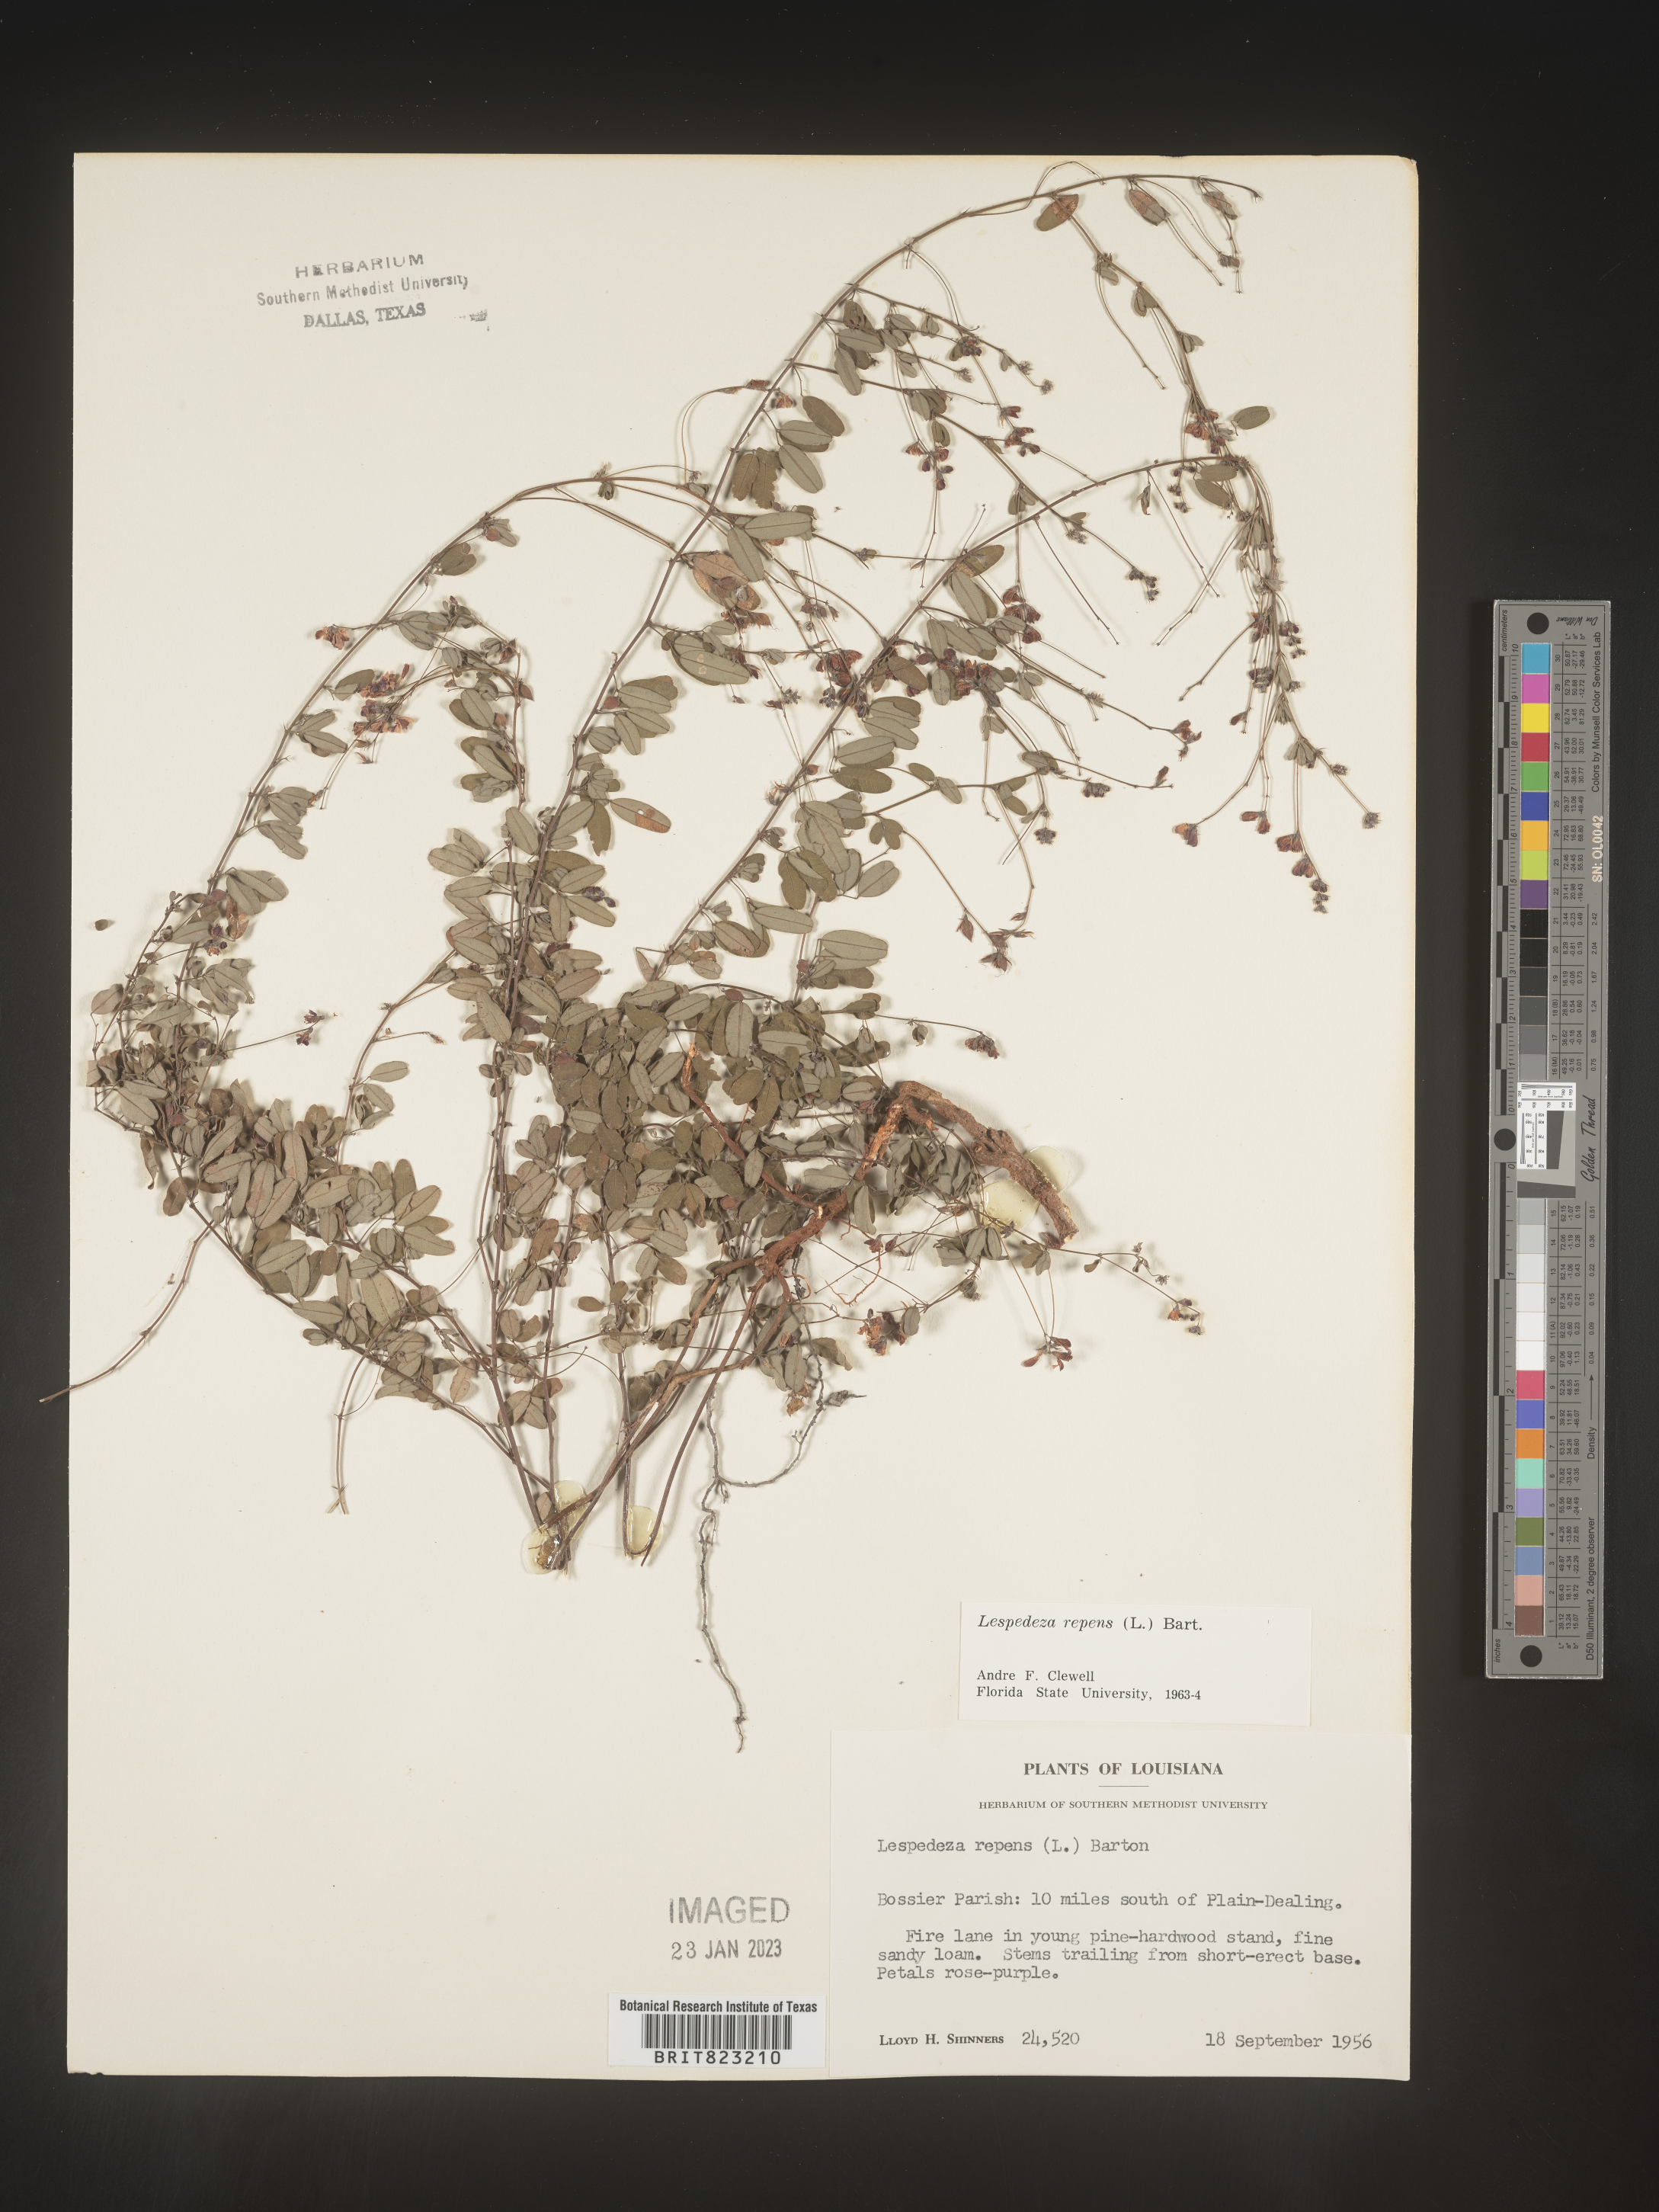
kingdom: Plantae
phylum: Tracheophyta
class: Magnoliopsida
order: Fabales
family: Fabaceae
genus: Lespedeza
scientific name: Lespedeza repens
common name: Creeping bush-clover
